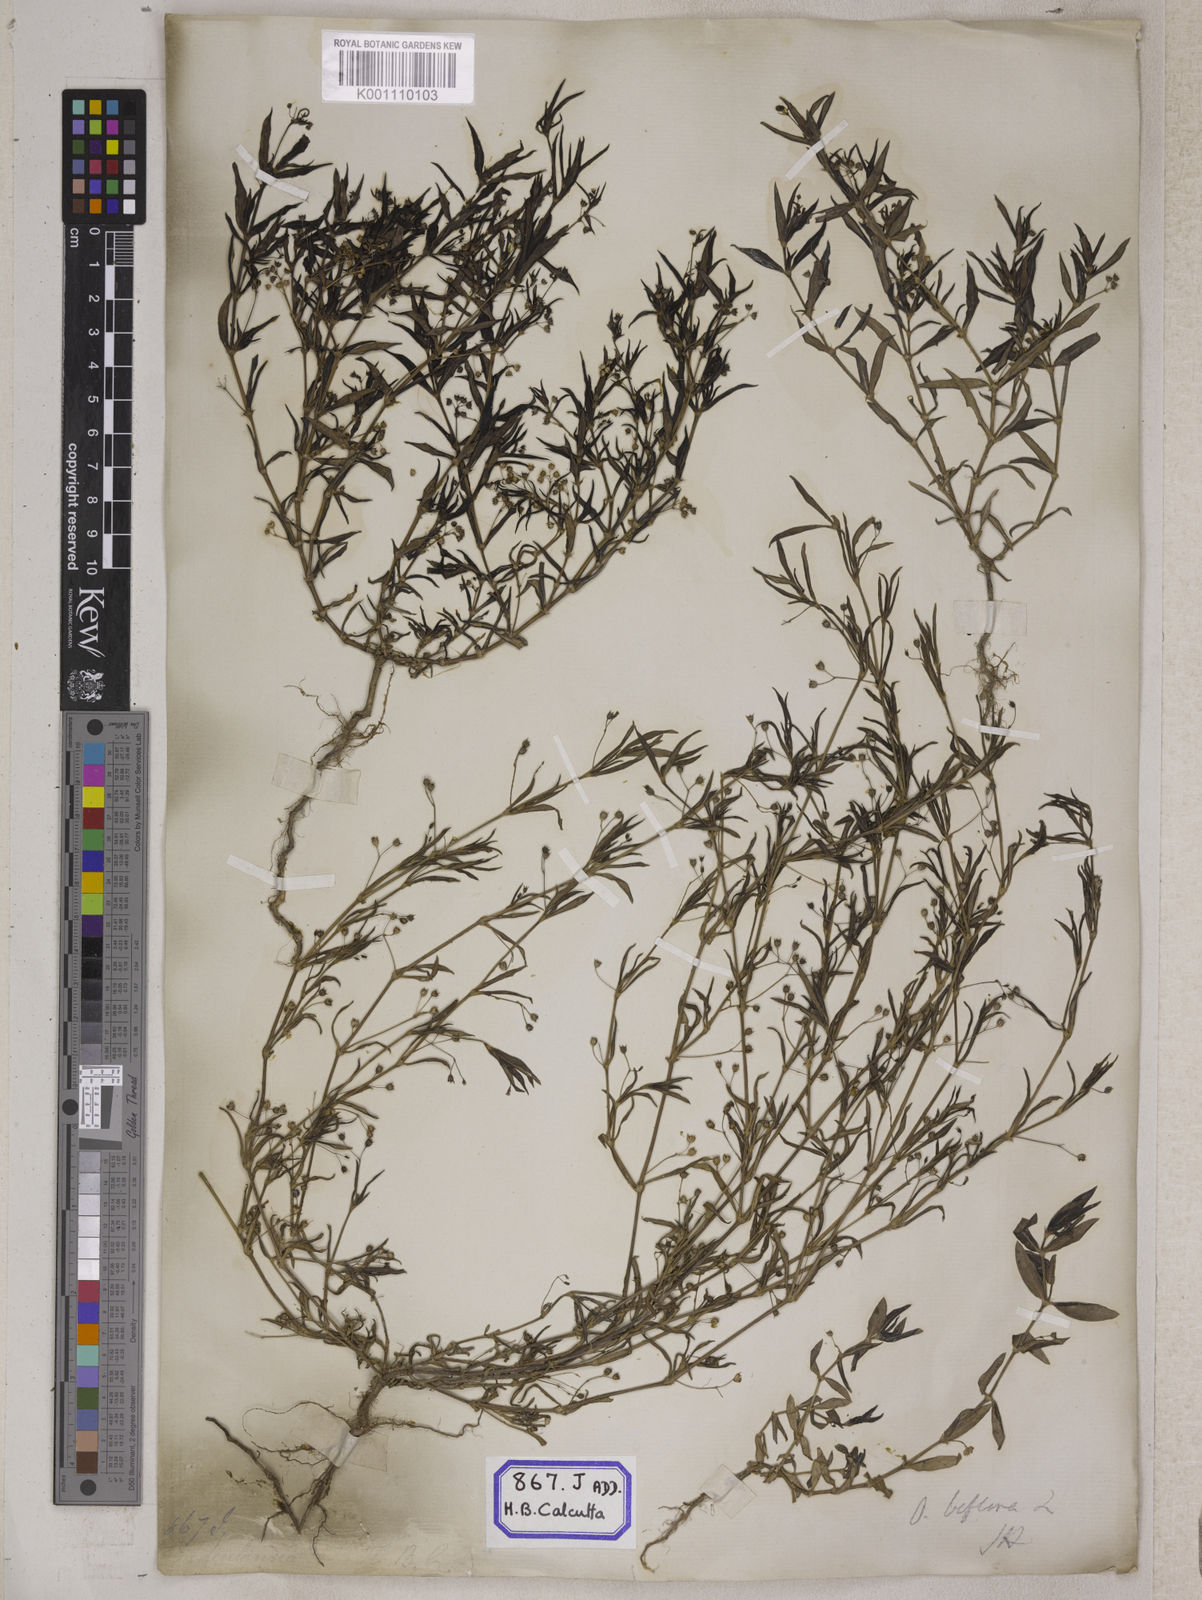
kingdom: Plantae
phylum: Tracheophyta
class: Magnoliopsida
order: Gentianales
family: Rubiaceae
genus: Hedyotis
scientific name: Hedyotis
